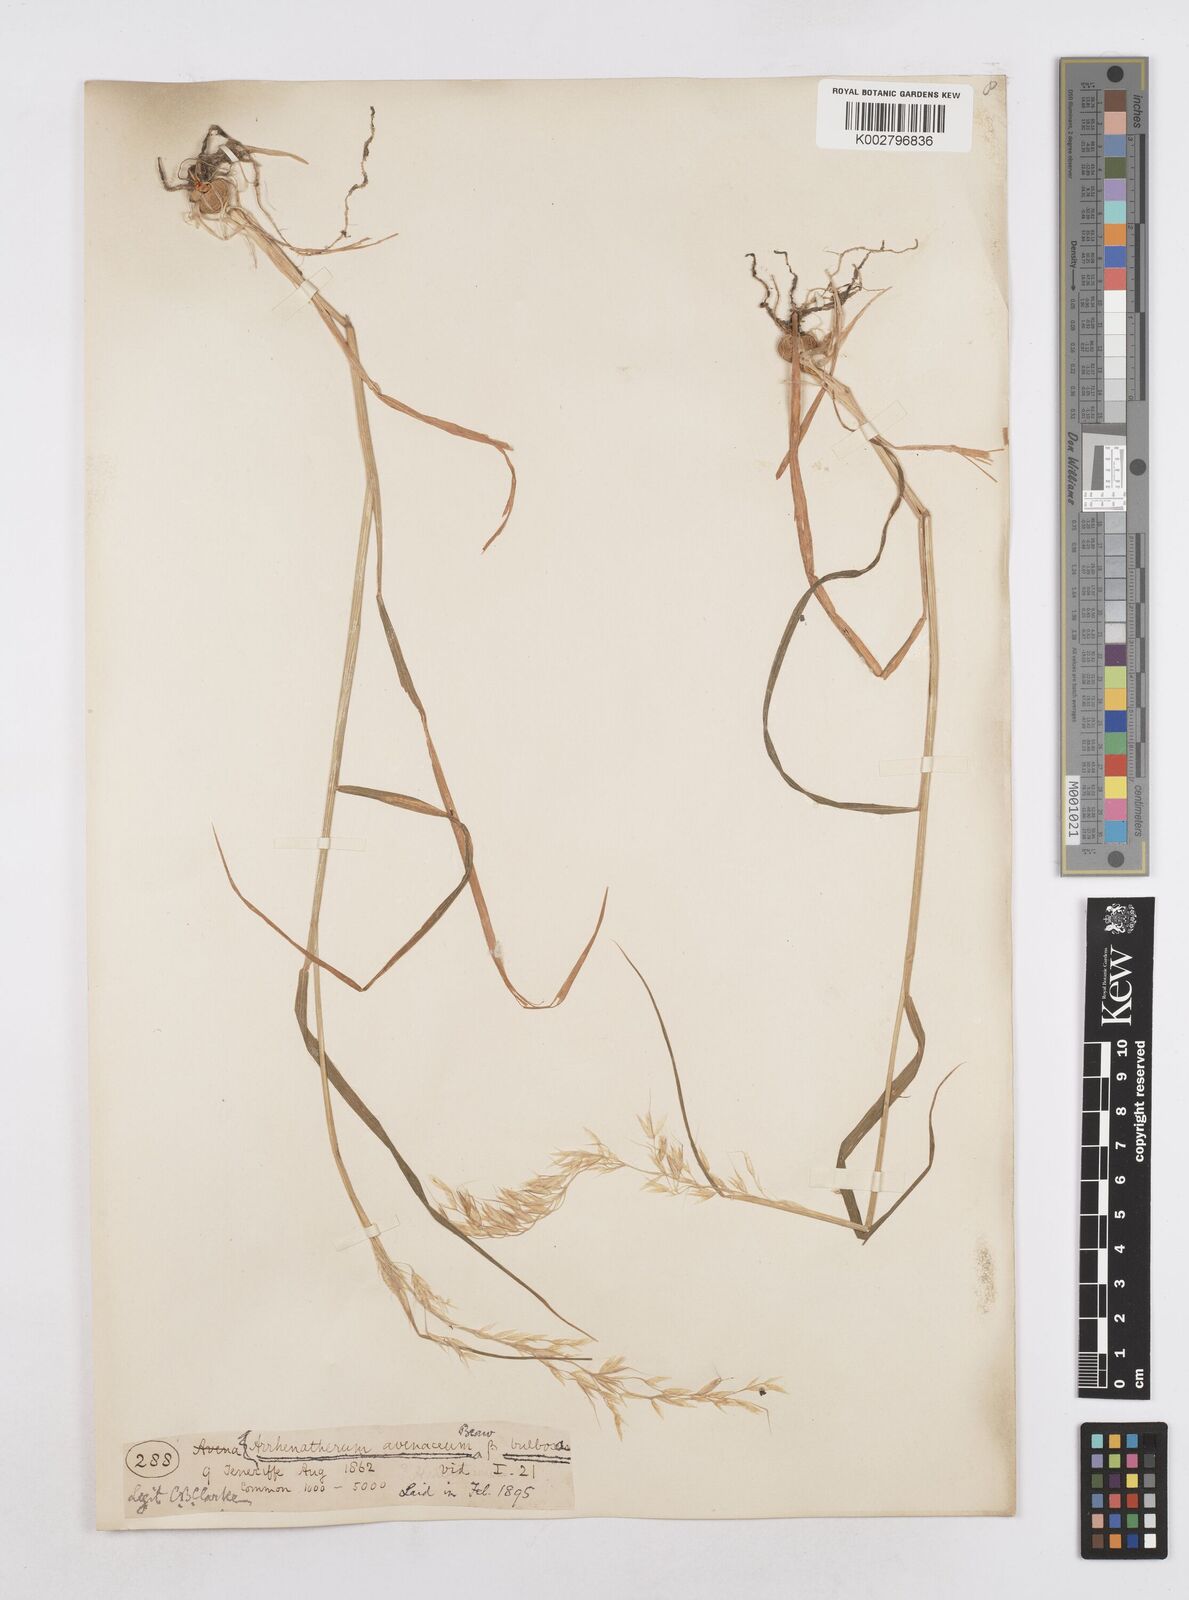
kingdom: Plantae
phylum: Tracheophyta
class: Liliopsida
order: Poales
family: Poaceae
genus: Arrhenatherum
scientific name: Arrhenatherum elatius
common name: Tall oatgrass
